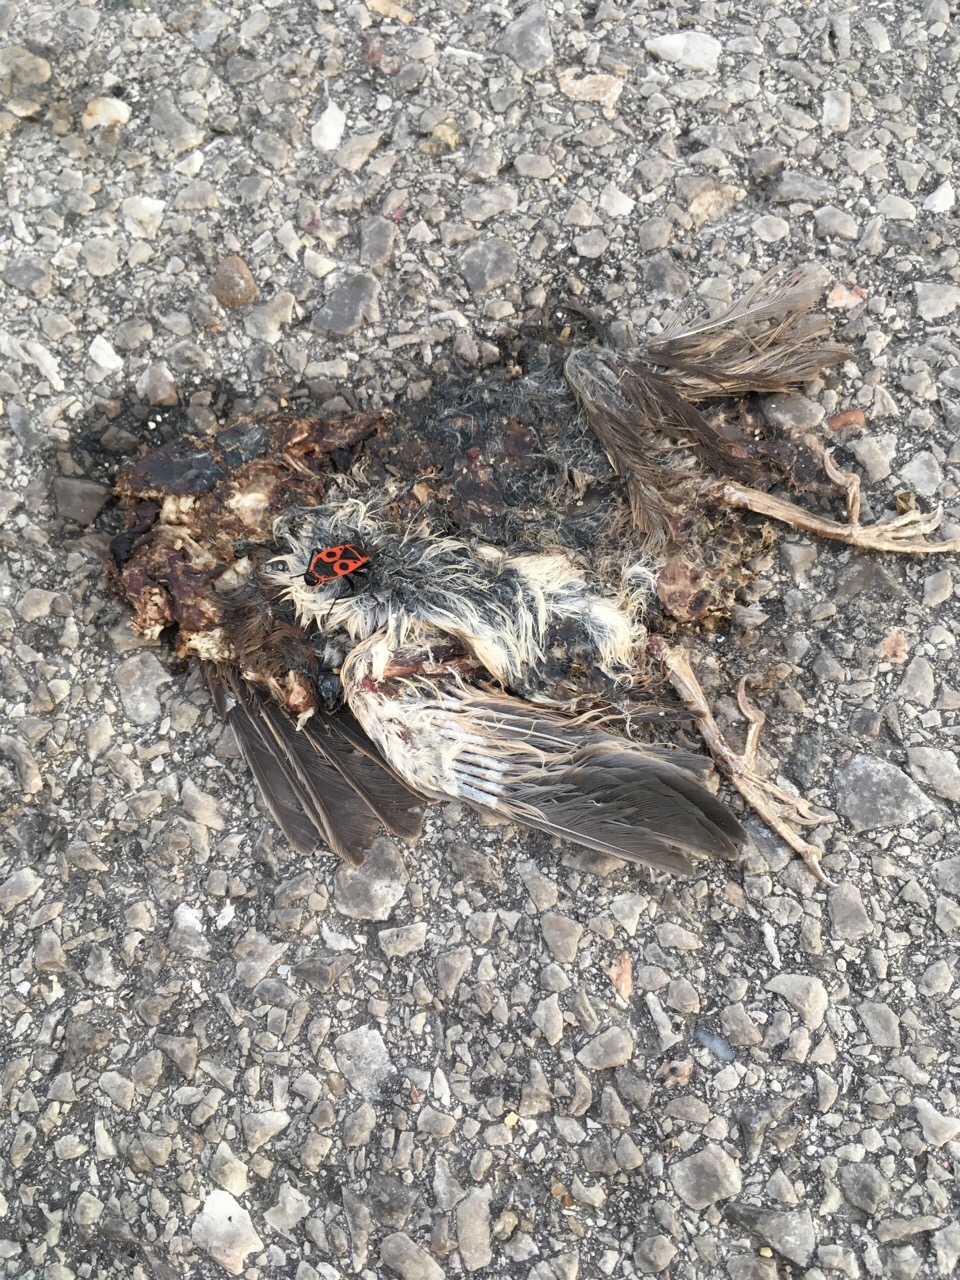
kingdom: Animalia
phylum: Chordata
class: Aves
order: Passeriformes
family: Passeridae
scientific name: Passeridae
